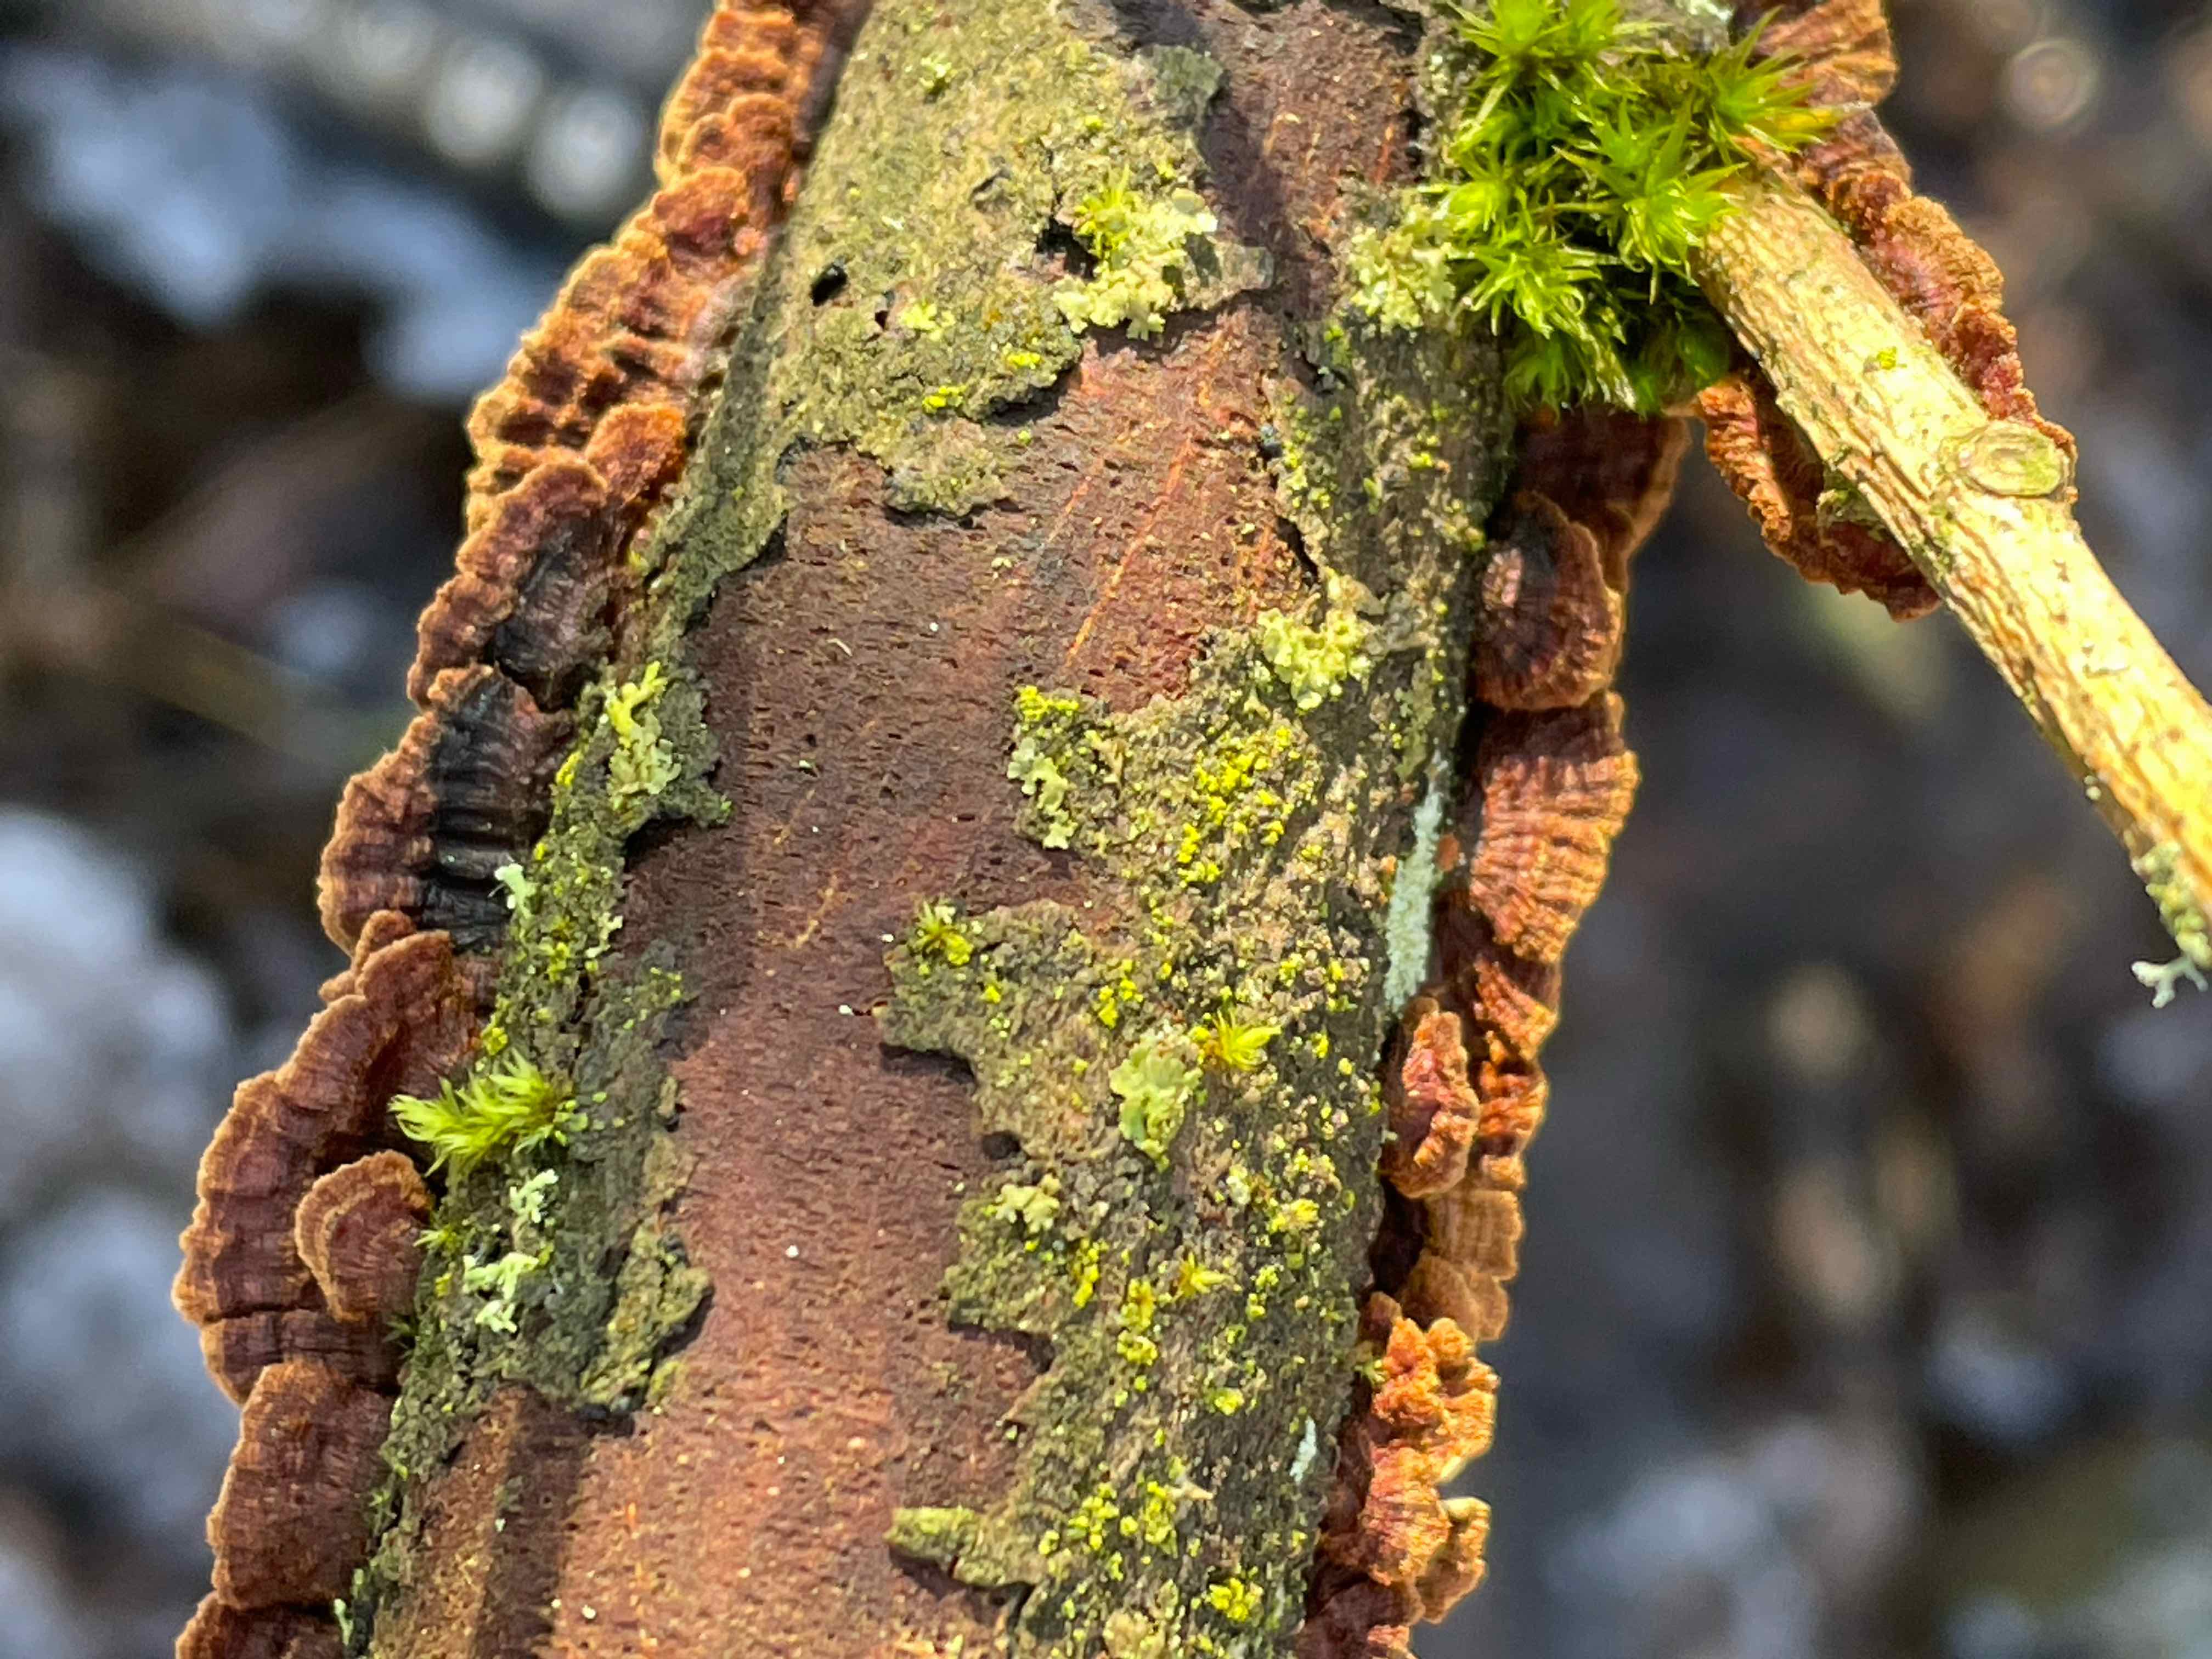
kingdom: Fungi
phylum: Basidiomycota
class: Agaricomycetes
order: Hymenochaetales
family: Hymenochaetaceae
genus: Hydnoporia
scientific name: Hydnoporia tabacina
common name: tobaksbrun ruslædersvamp
